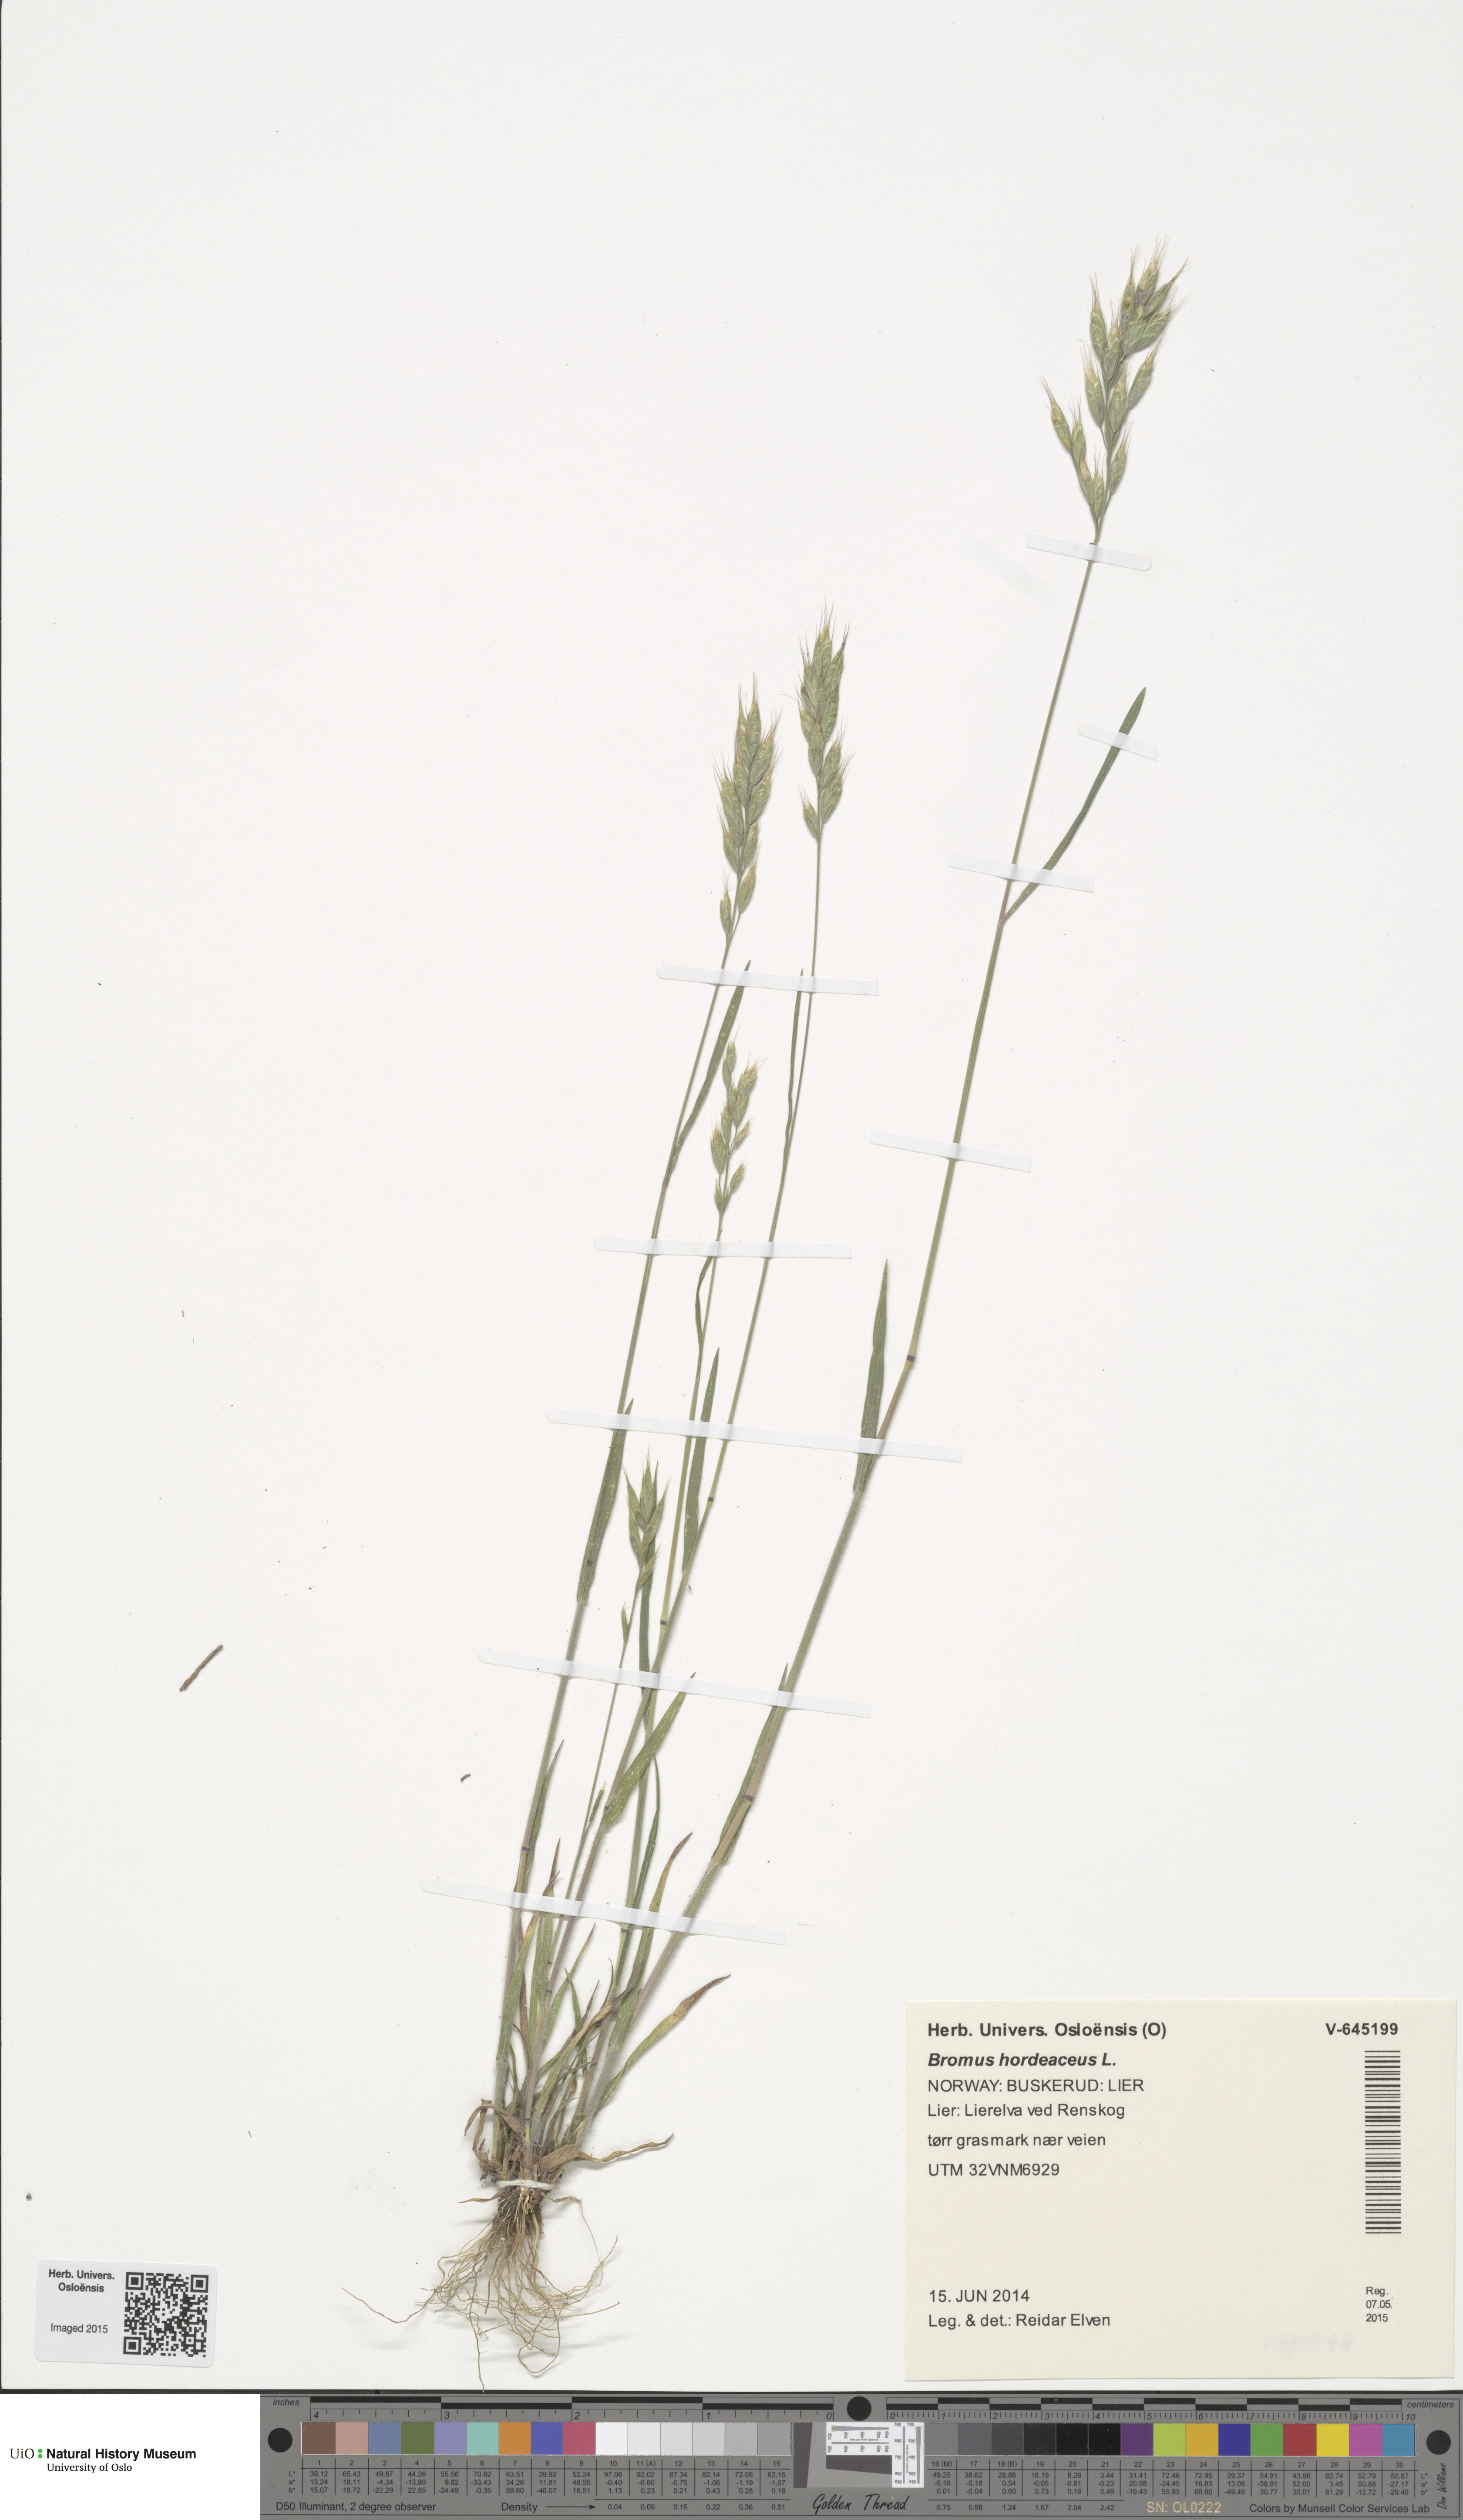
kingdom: Plantae
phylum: Tracheophyta
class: Liliopsida
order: Poales
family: Poaceae
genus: Bromus
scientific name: Bromus hordeaceus
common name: Soft brome
